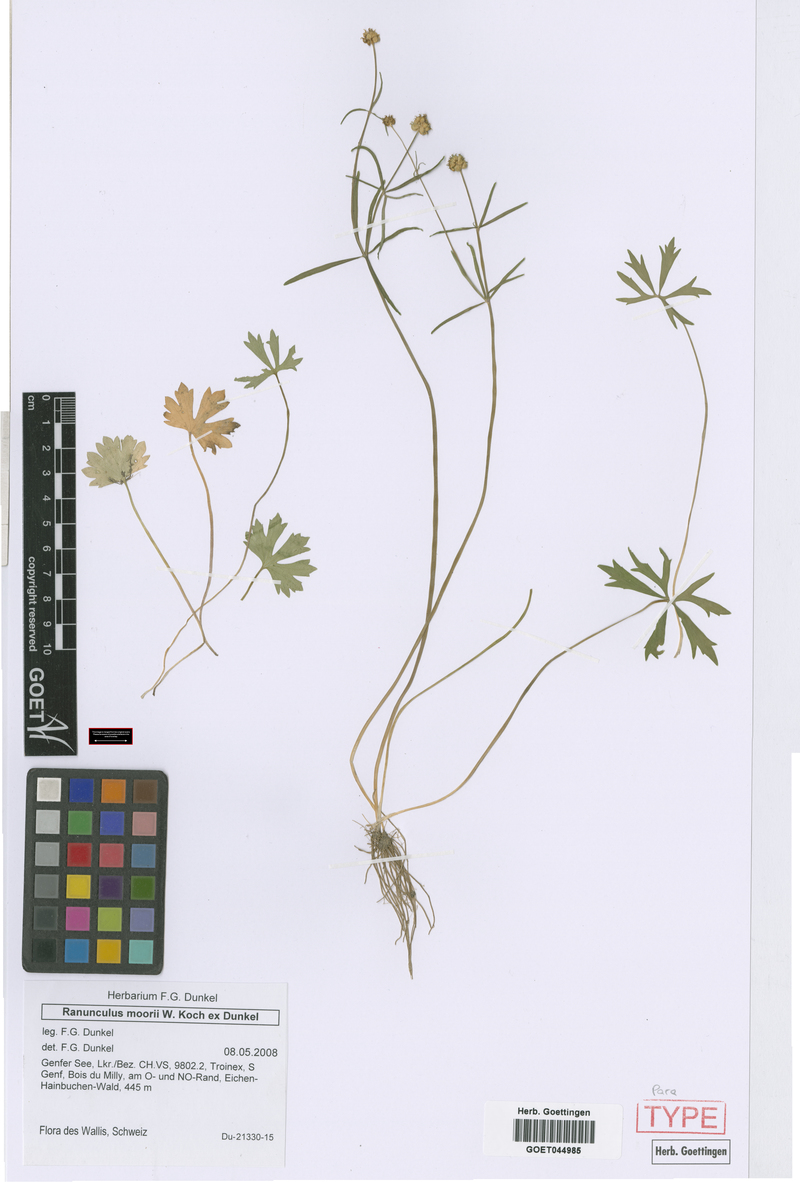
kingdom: Plantae
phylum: Tracheophyta
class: Magnoliopsida
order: Ranunculales
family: Ranunculaceae
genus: Ranunculus
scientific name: Ranunculus moorii
